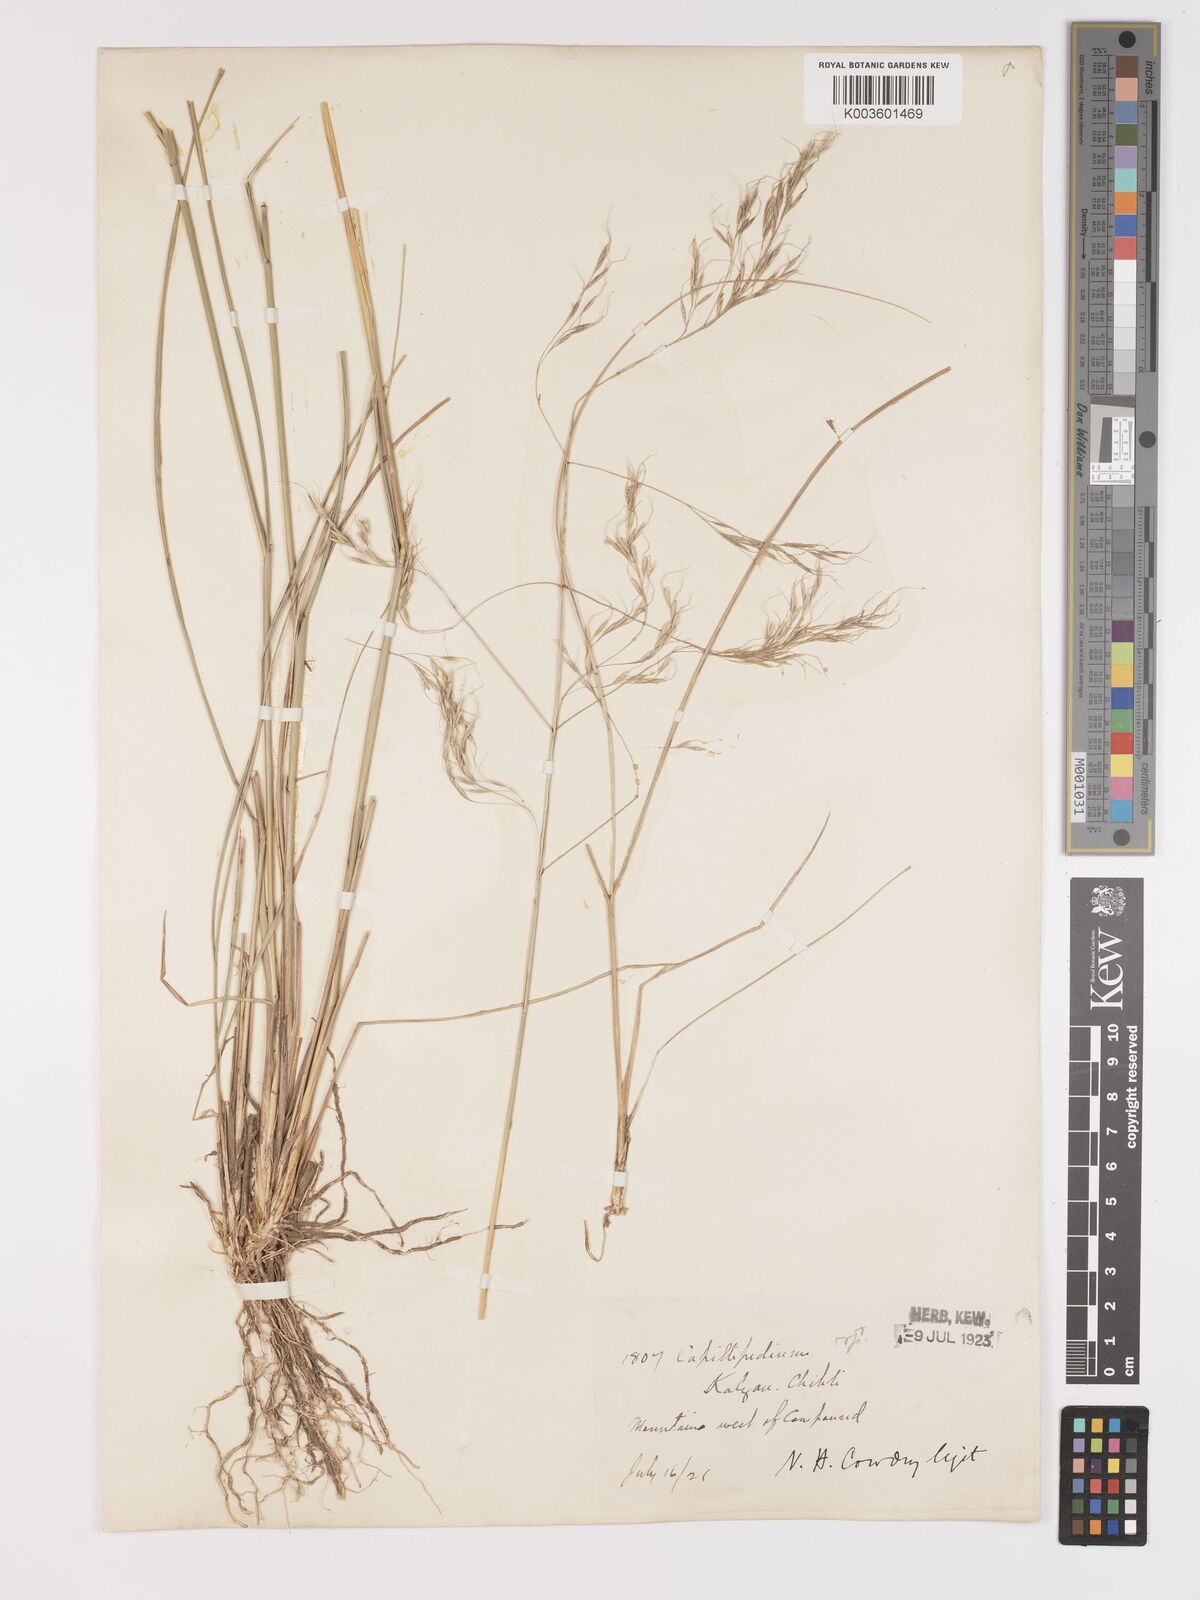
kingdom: Plantae
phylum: Tracheophyta
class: Liliopsida
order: Poales
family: Poaceae
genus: Achnatherum
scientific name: Achnatherum pekinense
